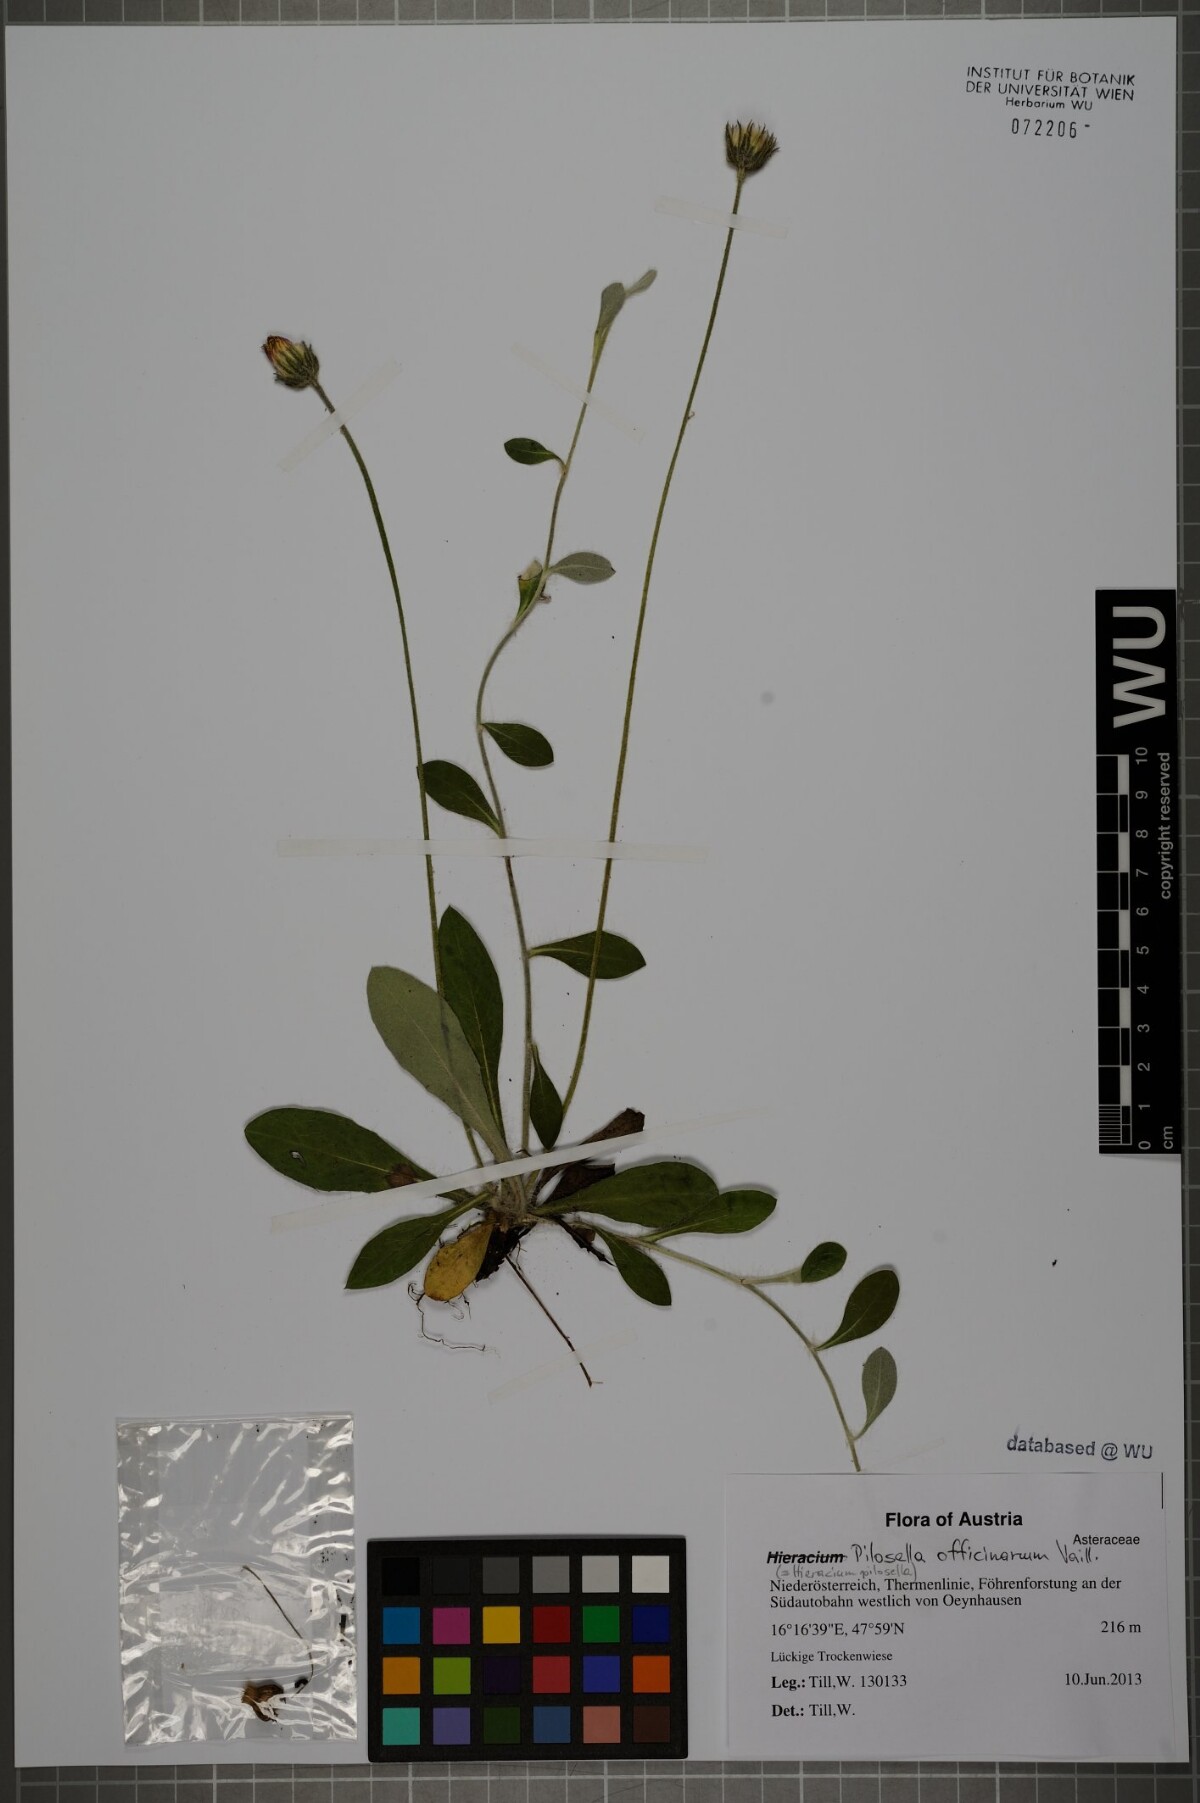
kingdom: Plantae
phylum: Tracheophyta
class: Magnoliopsida
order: Asterales
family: Asteraceae
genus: Pilosella
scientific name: Pilosella officinarum
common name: Mouse-ear hawkweed
